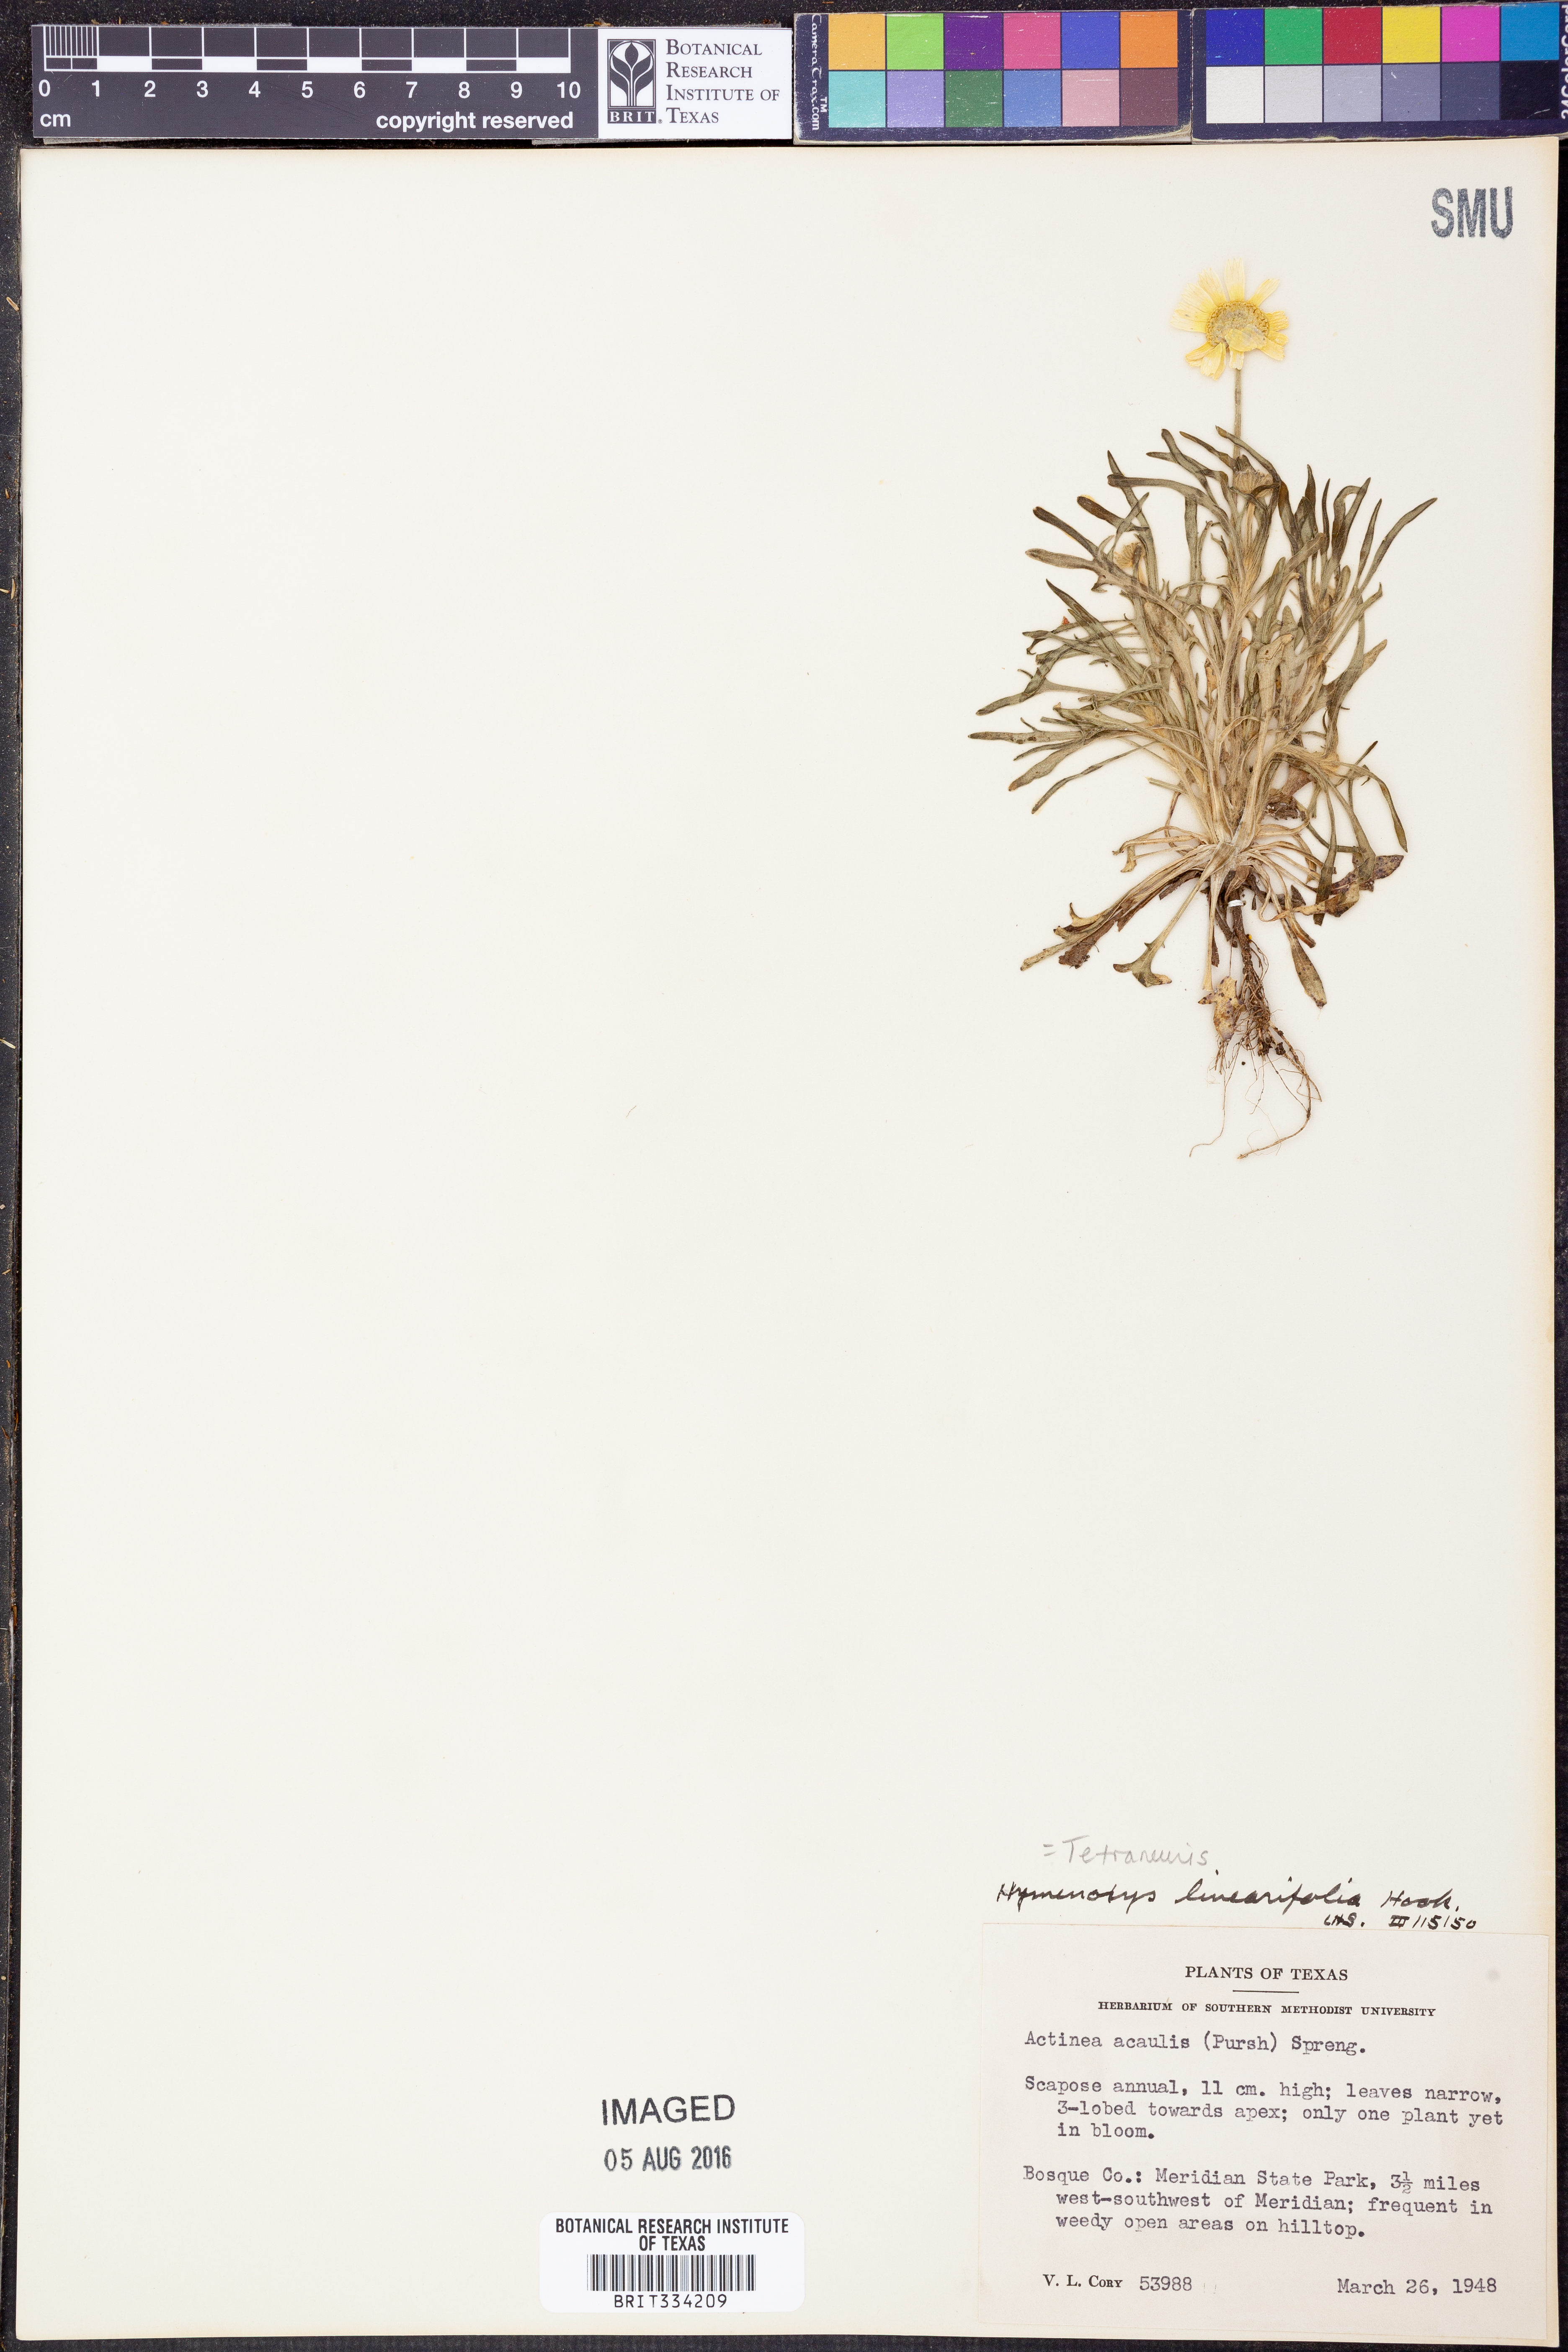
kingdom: Plantae
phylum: Tracheophyta
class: Magnoliopsida
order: Asterales
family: Asteraceae
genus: Tetraneuris
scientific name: Tetraneuris linearifolia
